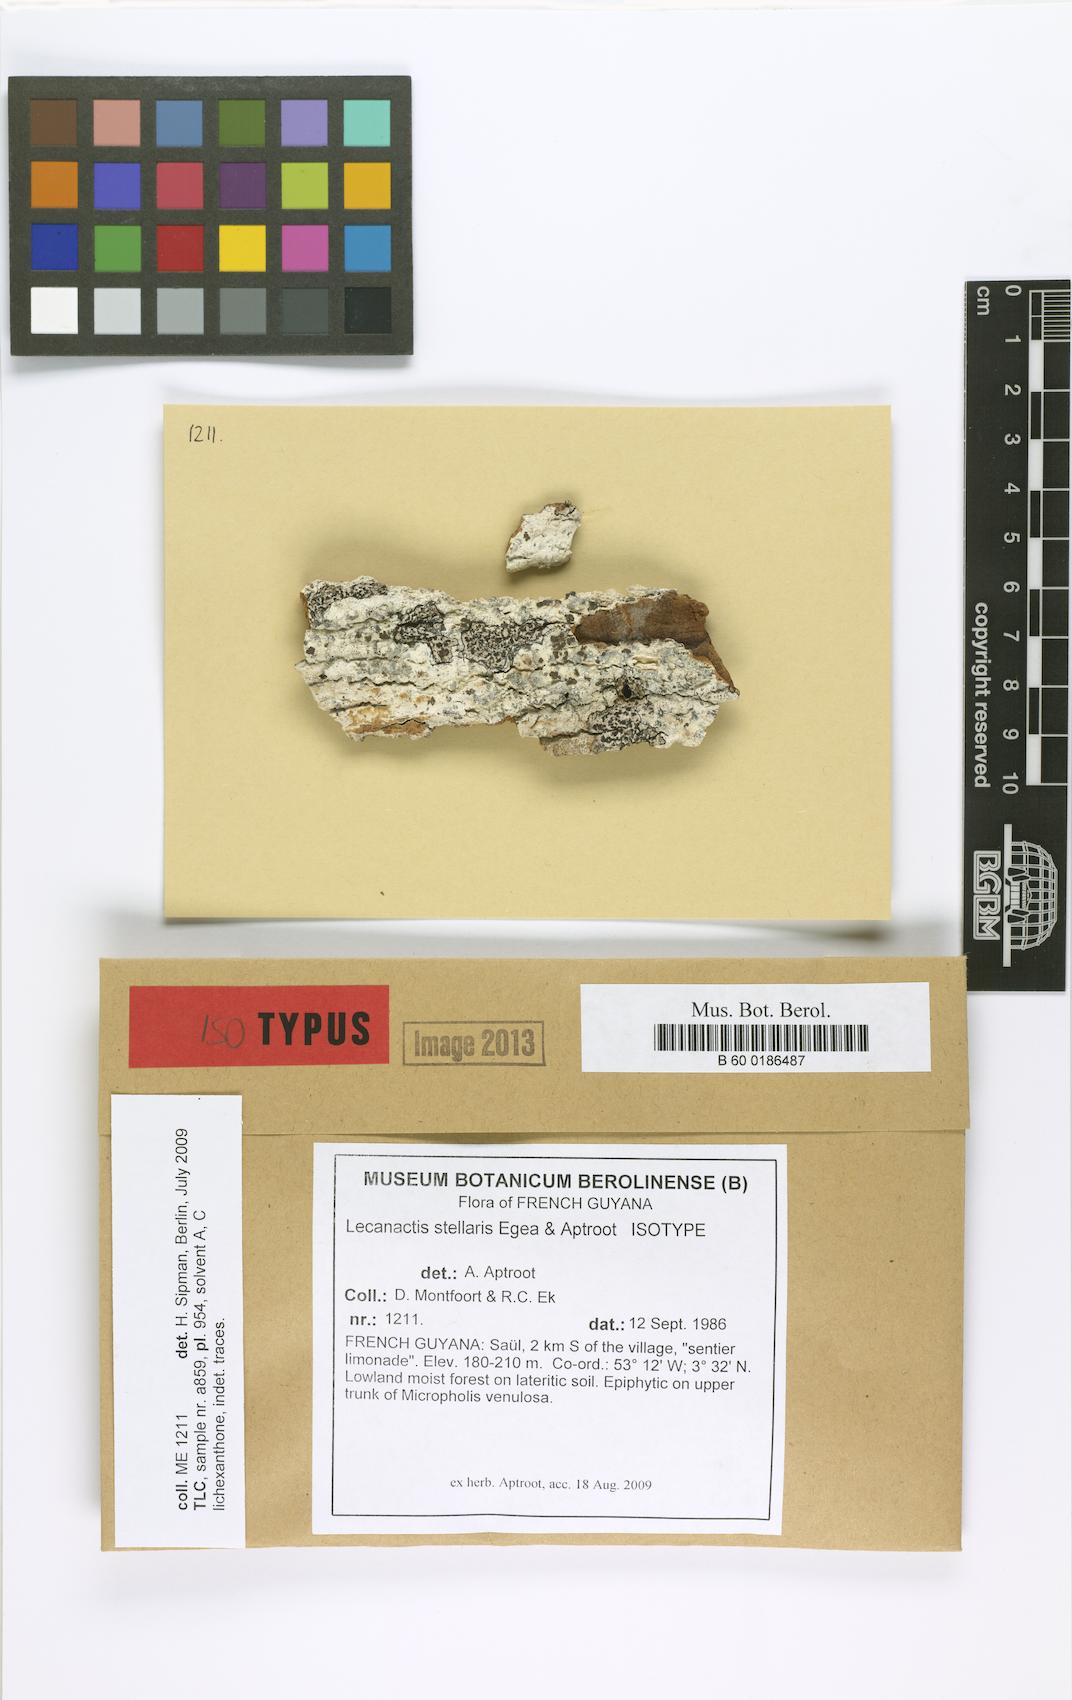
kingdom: Fungi
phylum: Ascomycota
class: Arthoniomycetes
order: Arthoniales
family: Roccellaceae
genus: Lecanactis
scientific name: Lecanactis stellaris
